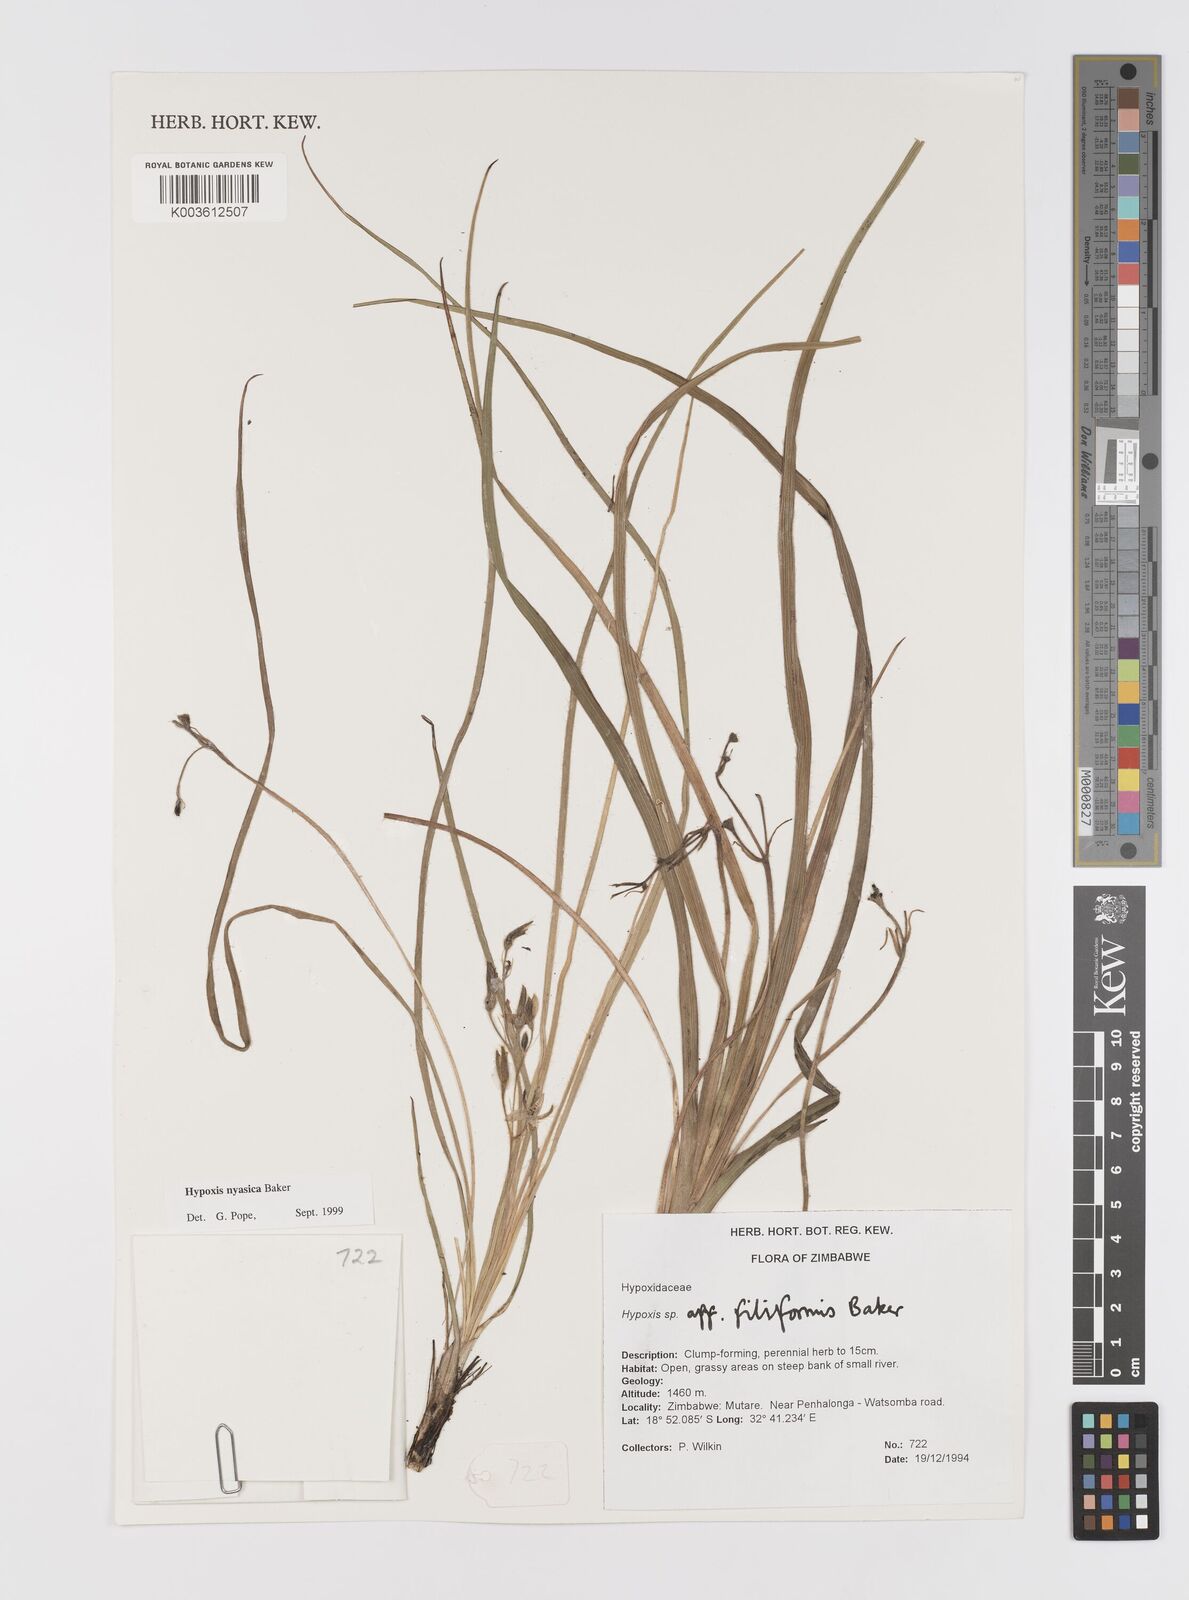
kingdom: Plantae
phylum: Tracheophyta
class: Liliopsida
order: Asparagales
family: Hypoxidaceae
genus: Hypoxis
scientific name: Hypoxis nyasica
